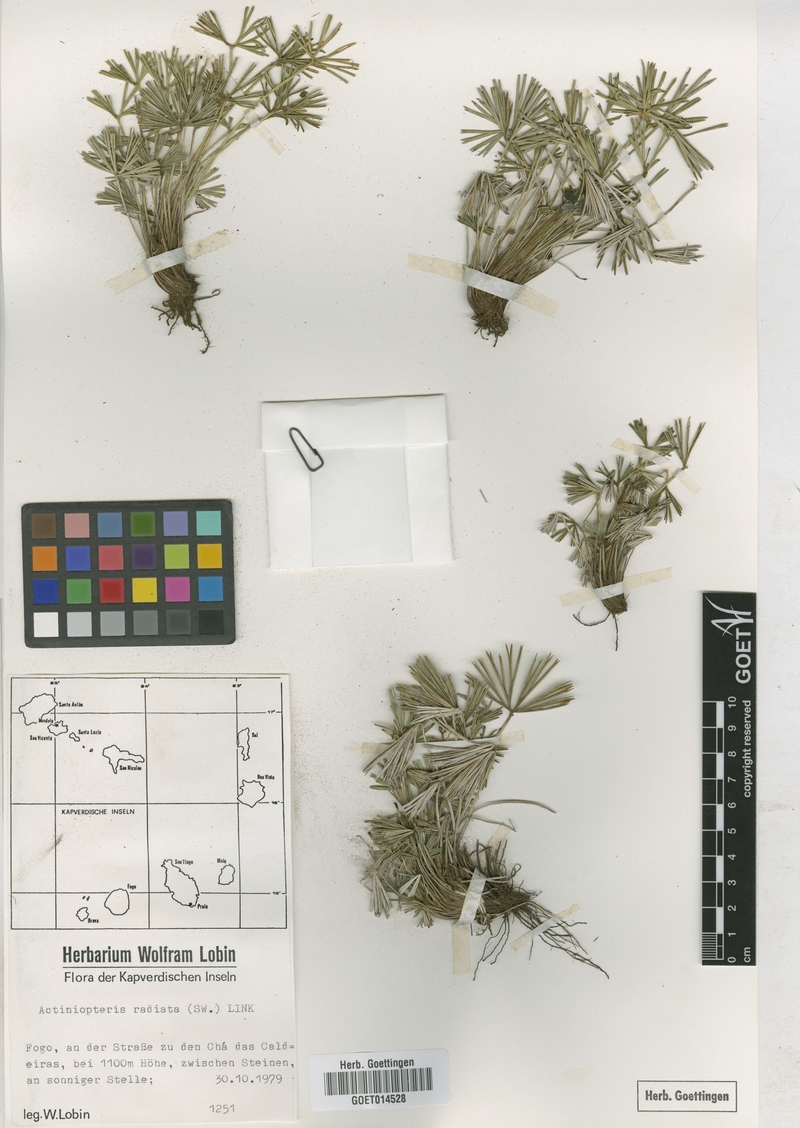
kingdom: Plantae
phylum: Tracheophyta
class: Polypodiopsida
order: Polypodiales
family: Pteridaceae
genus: Actiniopteris
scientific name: Actiniopteris radiata
